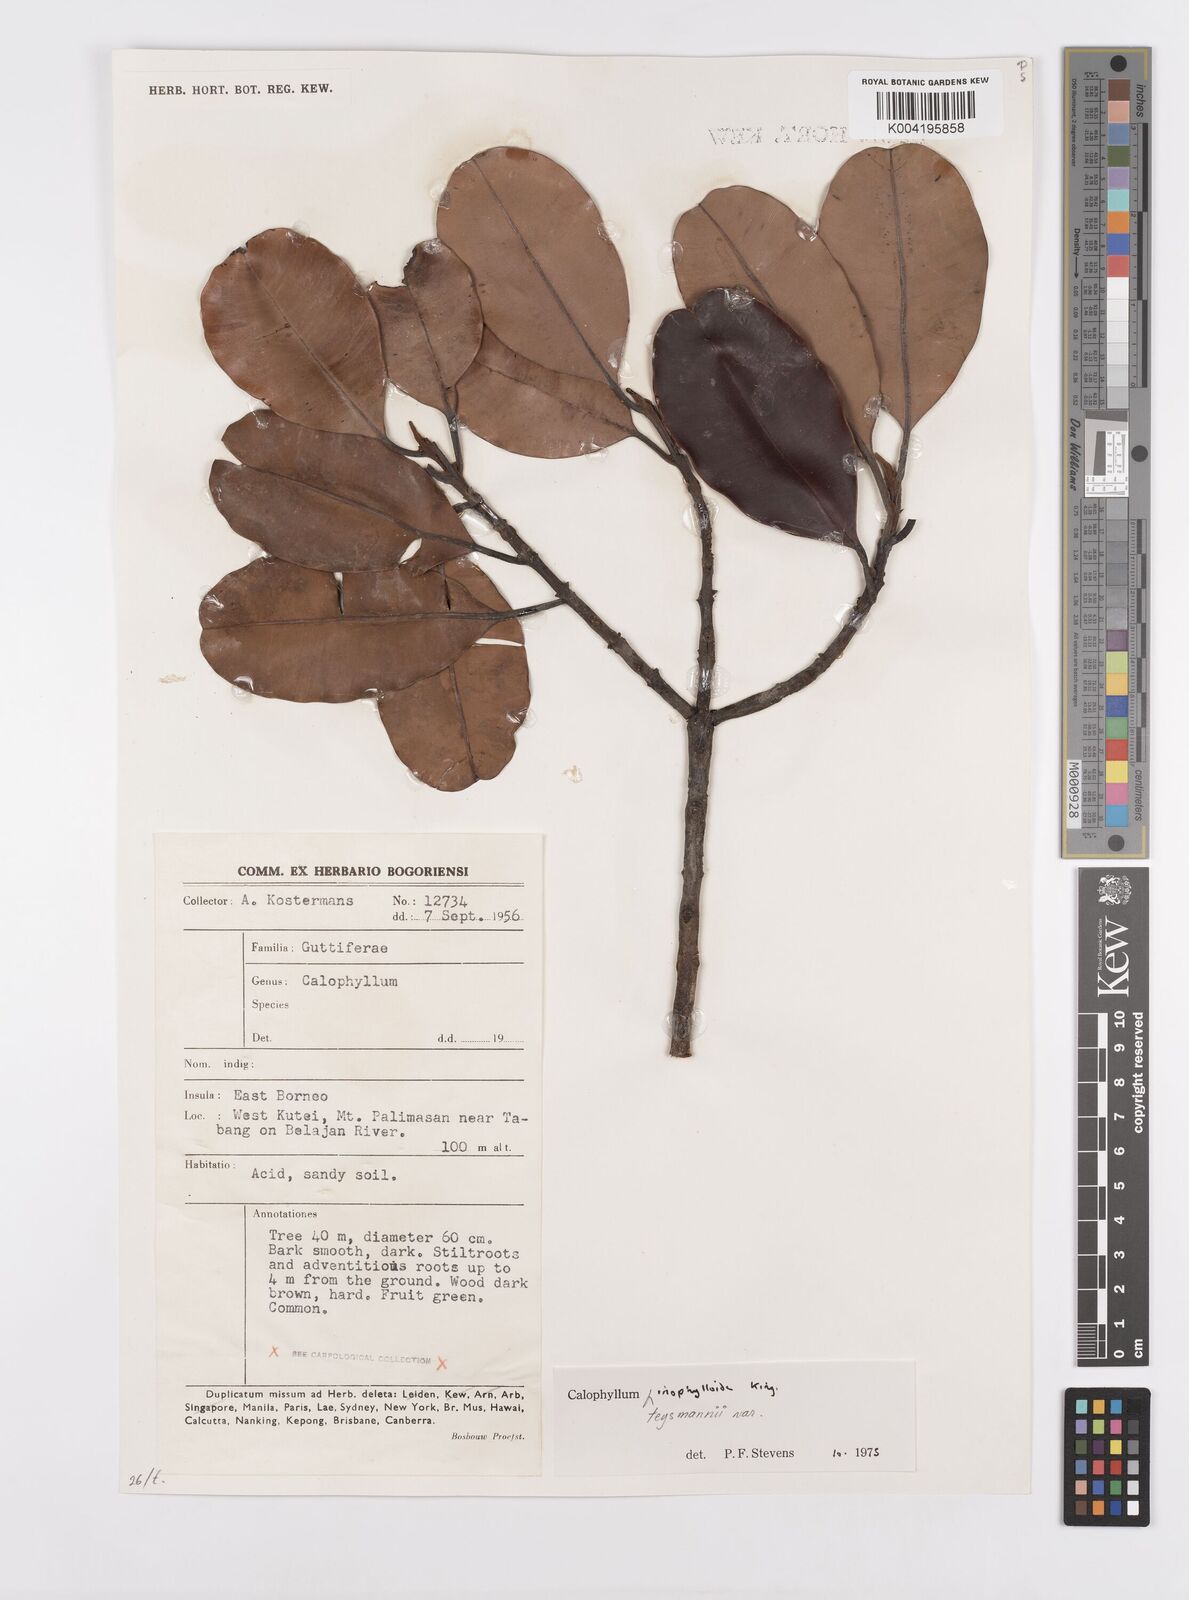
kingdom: Plantae
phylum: Tracheophyta
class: Magnoliopsida
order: Malpighiales
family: Calophyllaceae
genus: Calophyllum
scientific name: Calophyllum teysmannii
